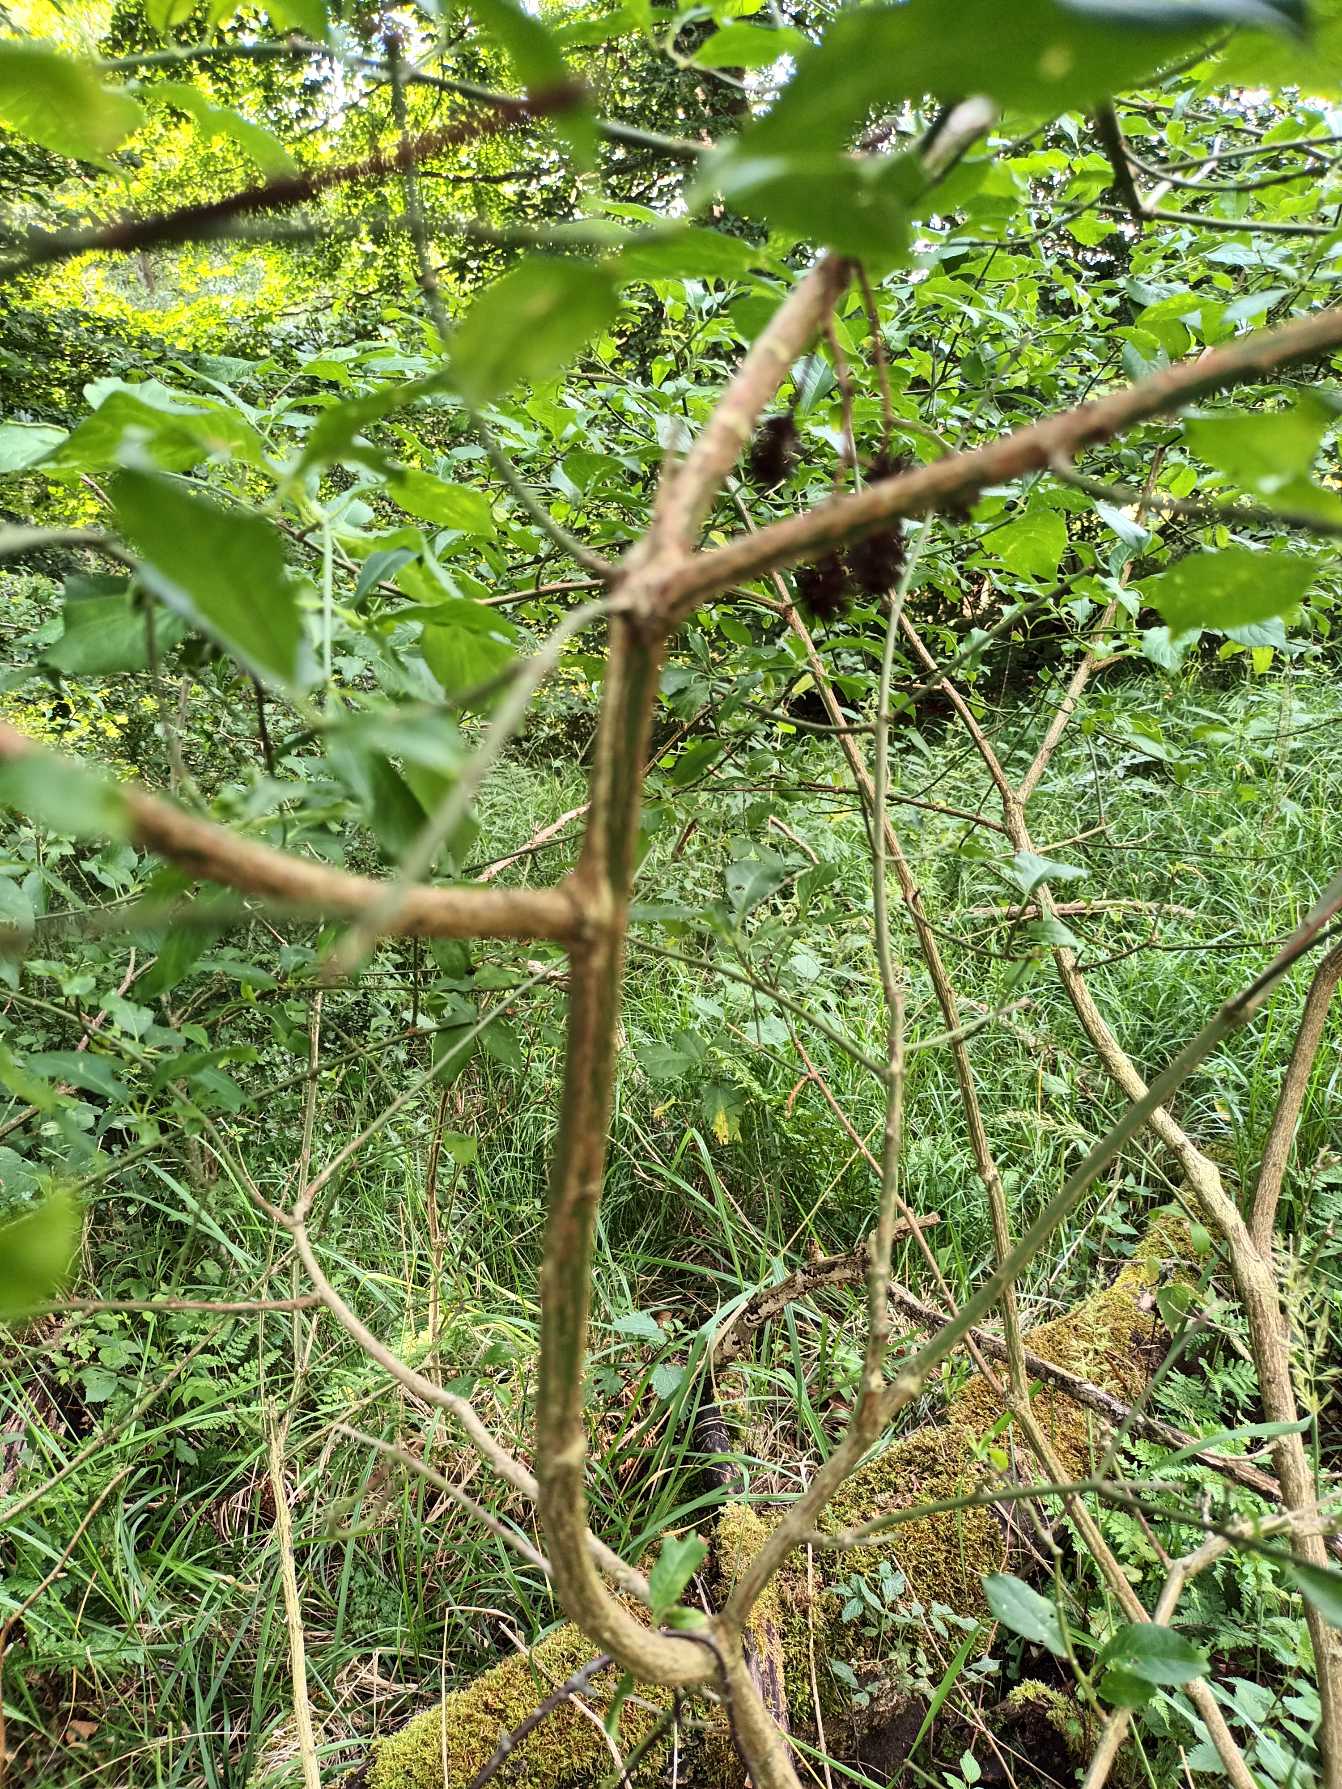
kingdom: Plantae
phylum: Tracheophyta
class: Magnoliopsida
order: Celastrales
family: Celastraceae
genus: Euonymus
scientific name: Euonymus europaeus
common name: Benved
